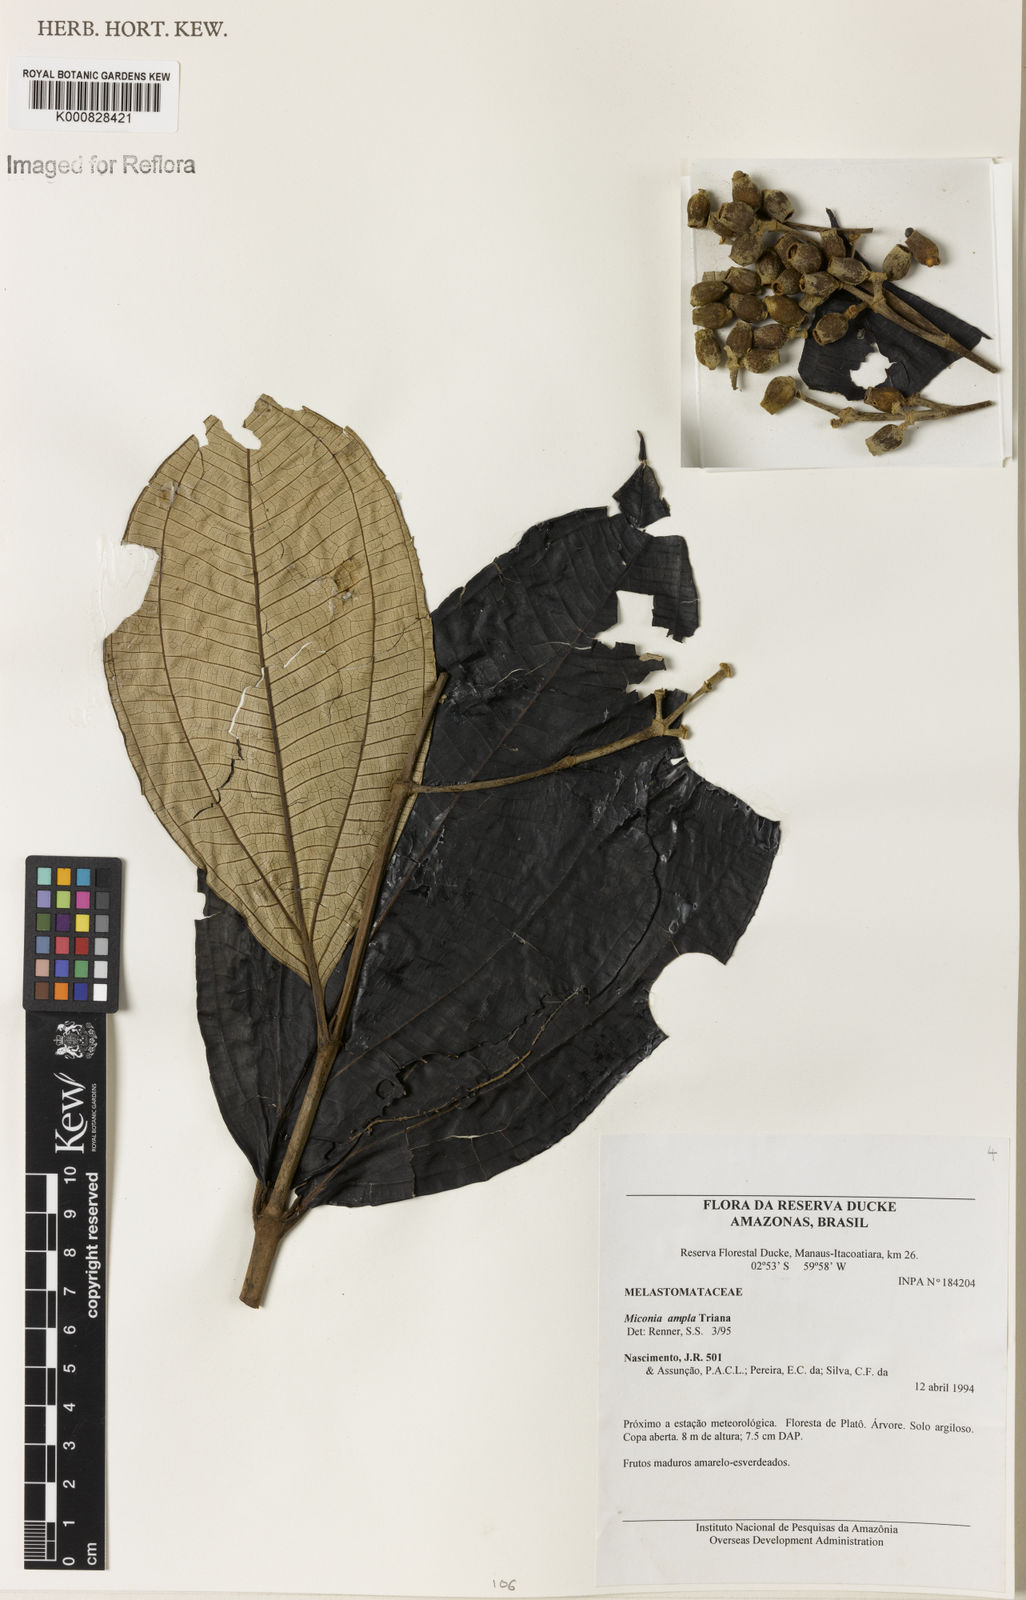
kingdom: Plantae
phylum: Tracheophyta
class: Magnoliopsida
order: Myrtales
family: Melastomataceae
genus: Miconia
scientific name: Miconia ampla
